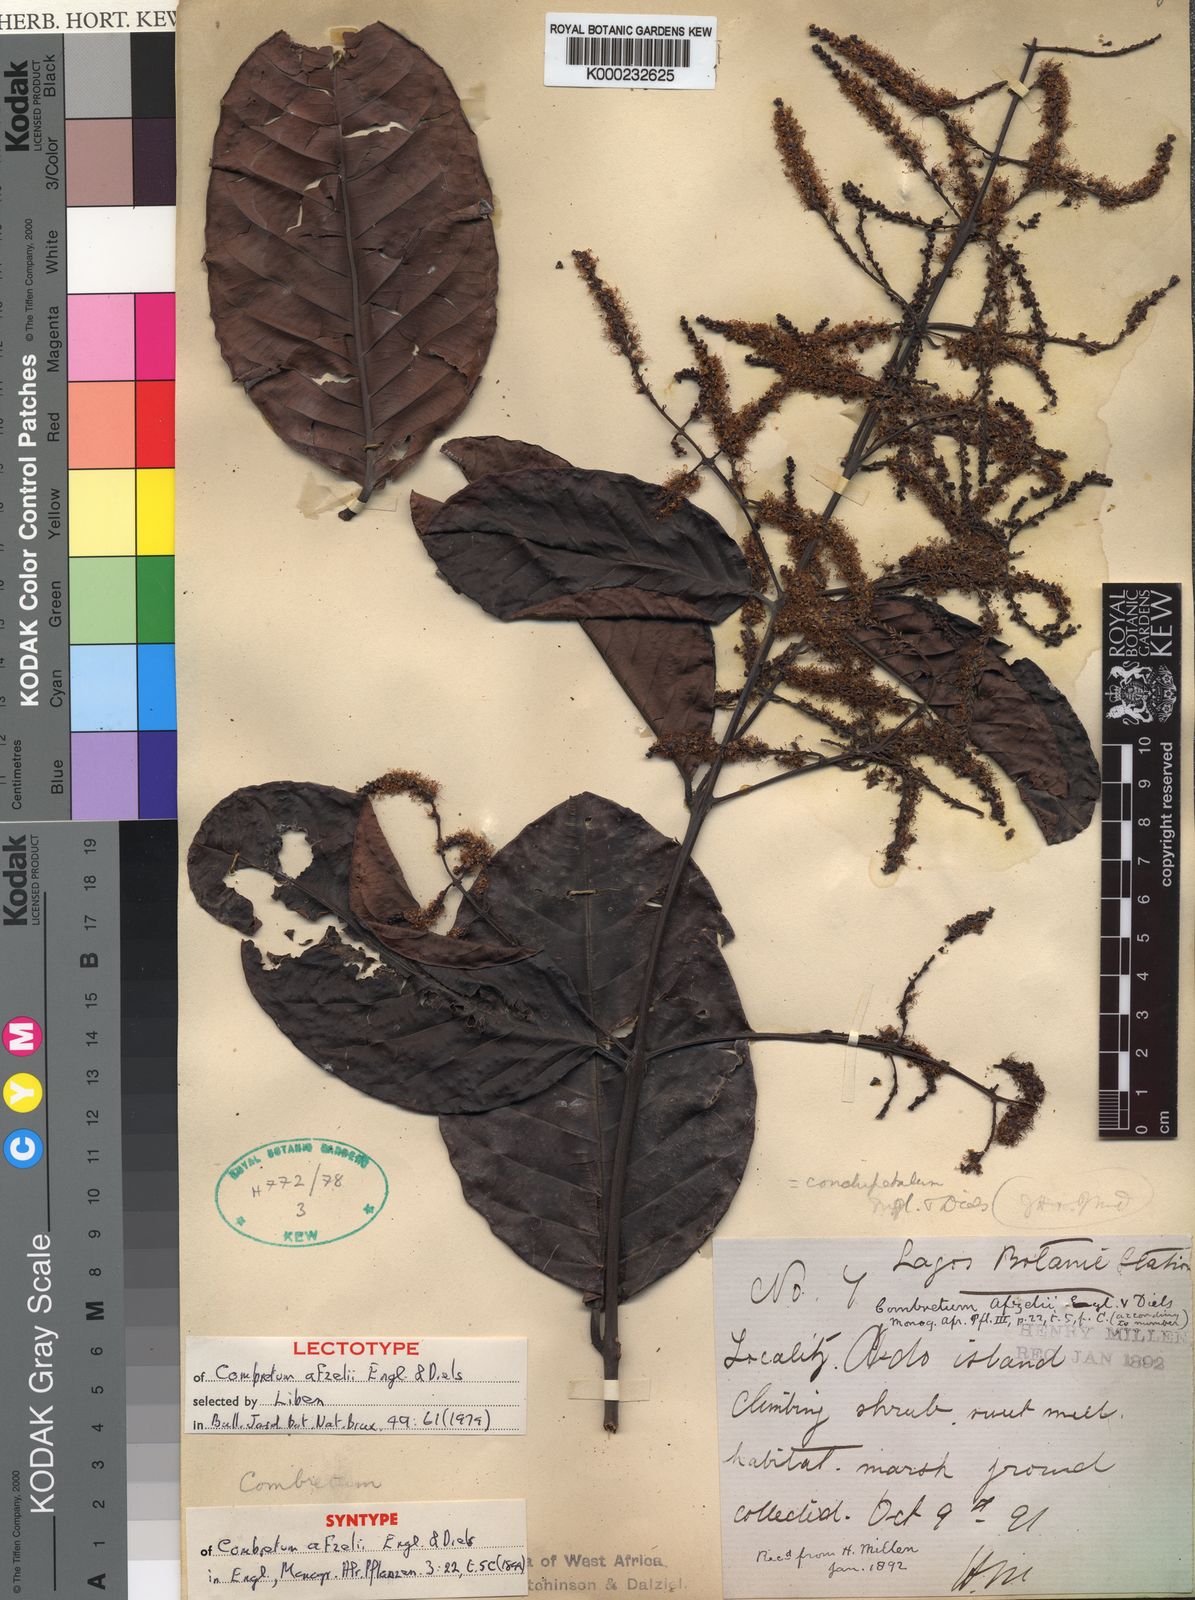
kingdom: Plantae
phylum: Tracheophyta
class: Magnoliopsida
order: Myrtales
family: Combretaceae
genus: Combretum
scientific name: Combretum conchipetalum
